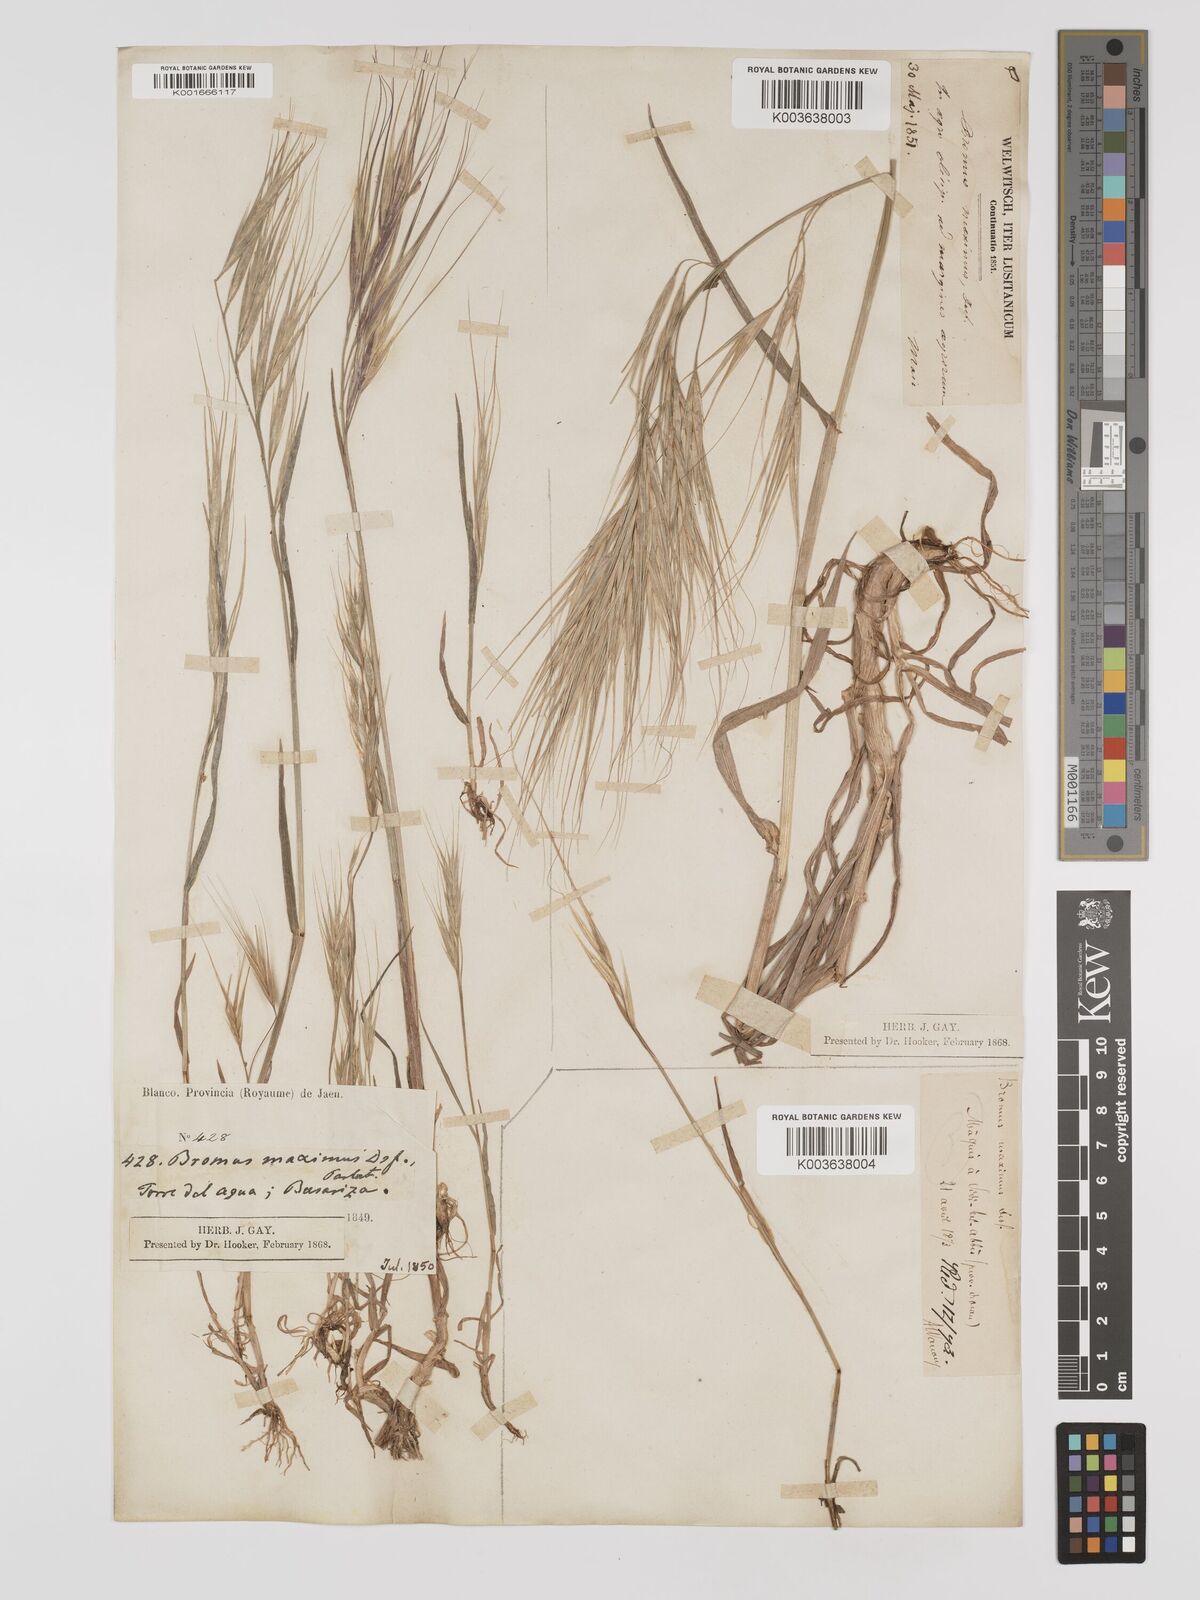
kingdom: Plantae
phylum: Tracheophyta
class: Liliopsida
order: Poales
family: Poaceae
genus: Bromus
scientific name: Bromus
